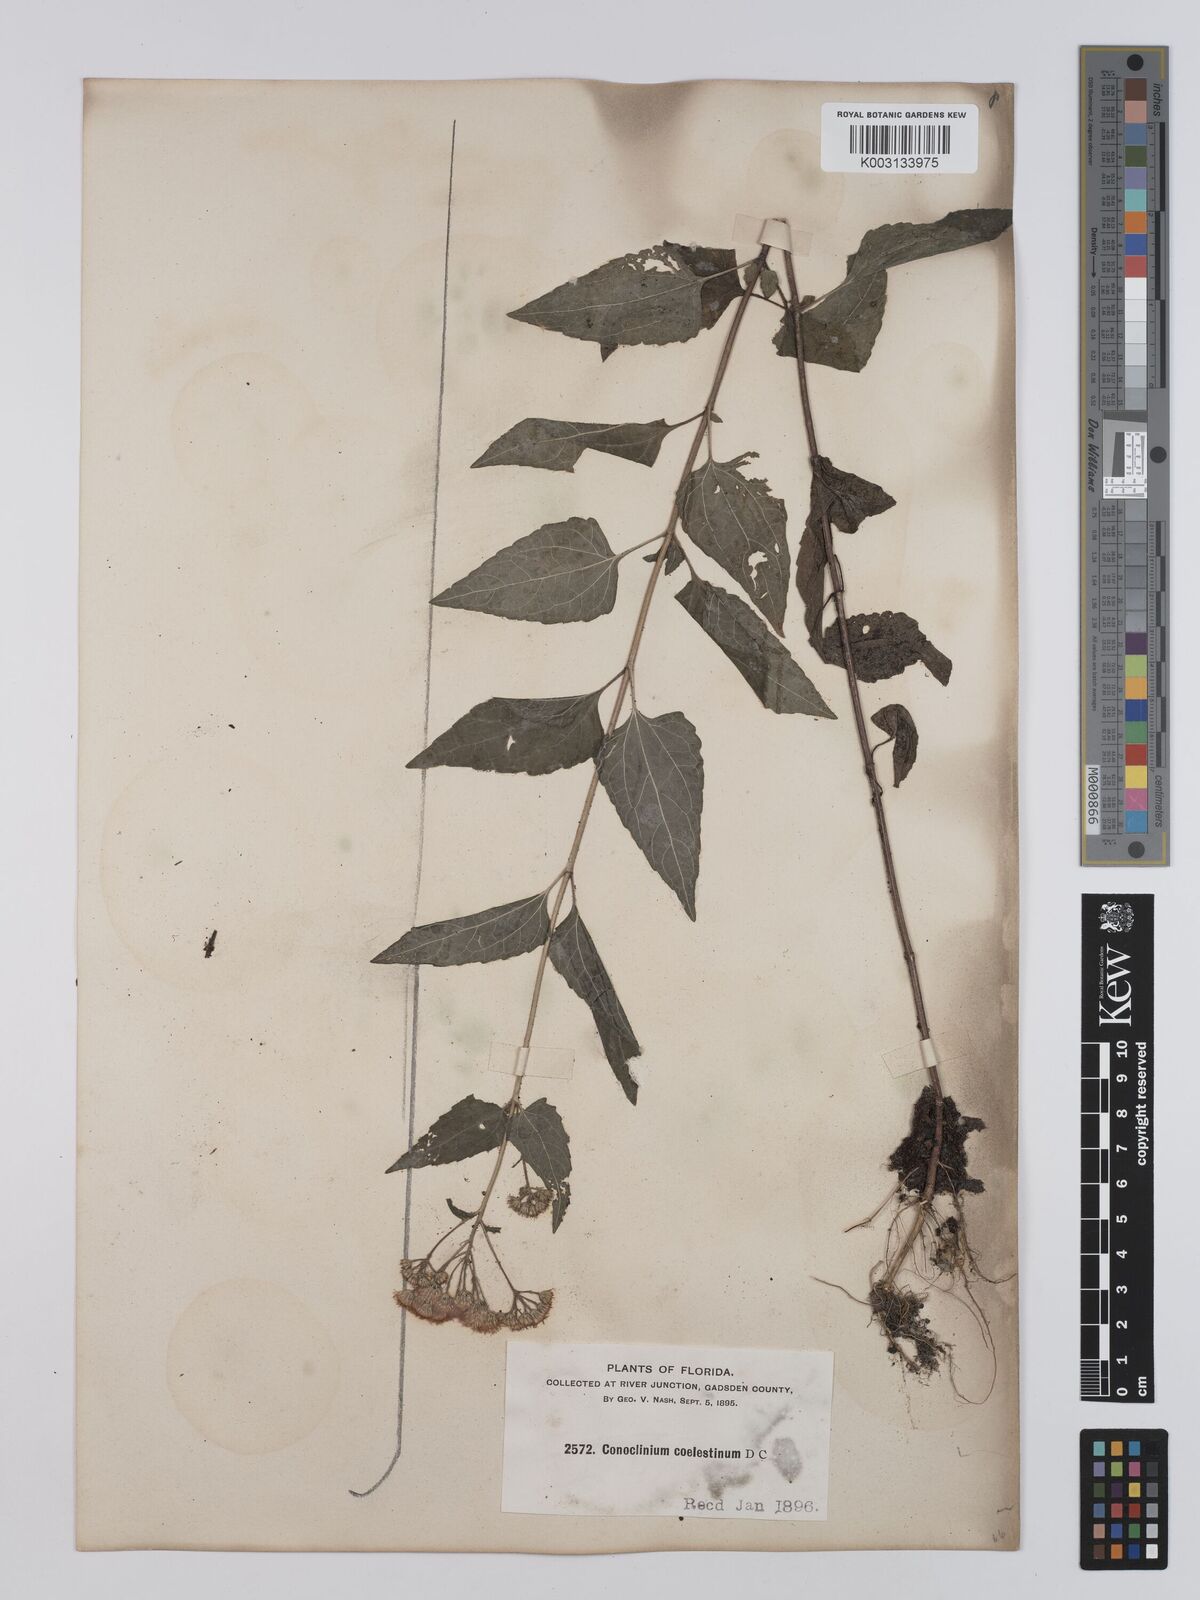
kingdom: Plantae
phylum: Tracheophyta
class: Magnoliopsida
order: Asterales
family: Asteraceae
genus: Conoclinium
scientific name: Conoclinium coelestinum
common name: Blue mistflower
